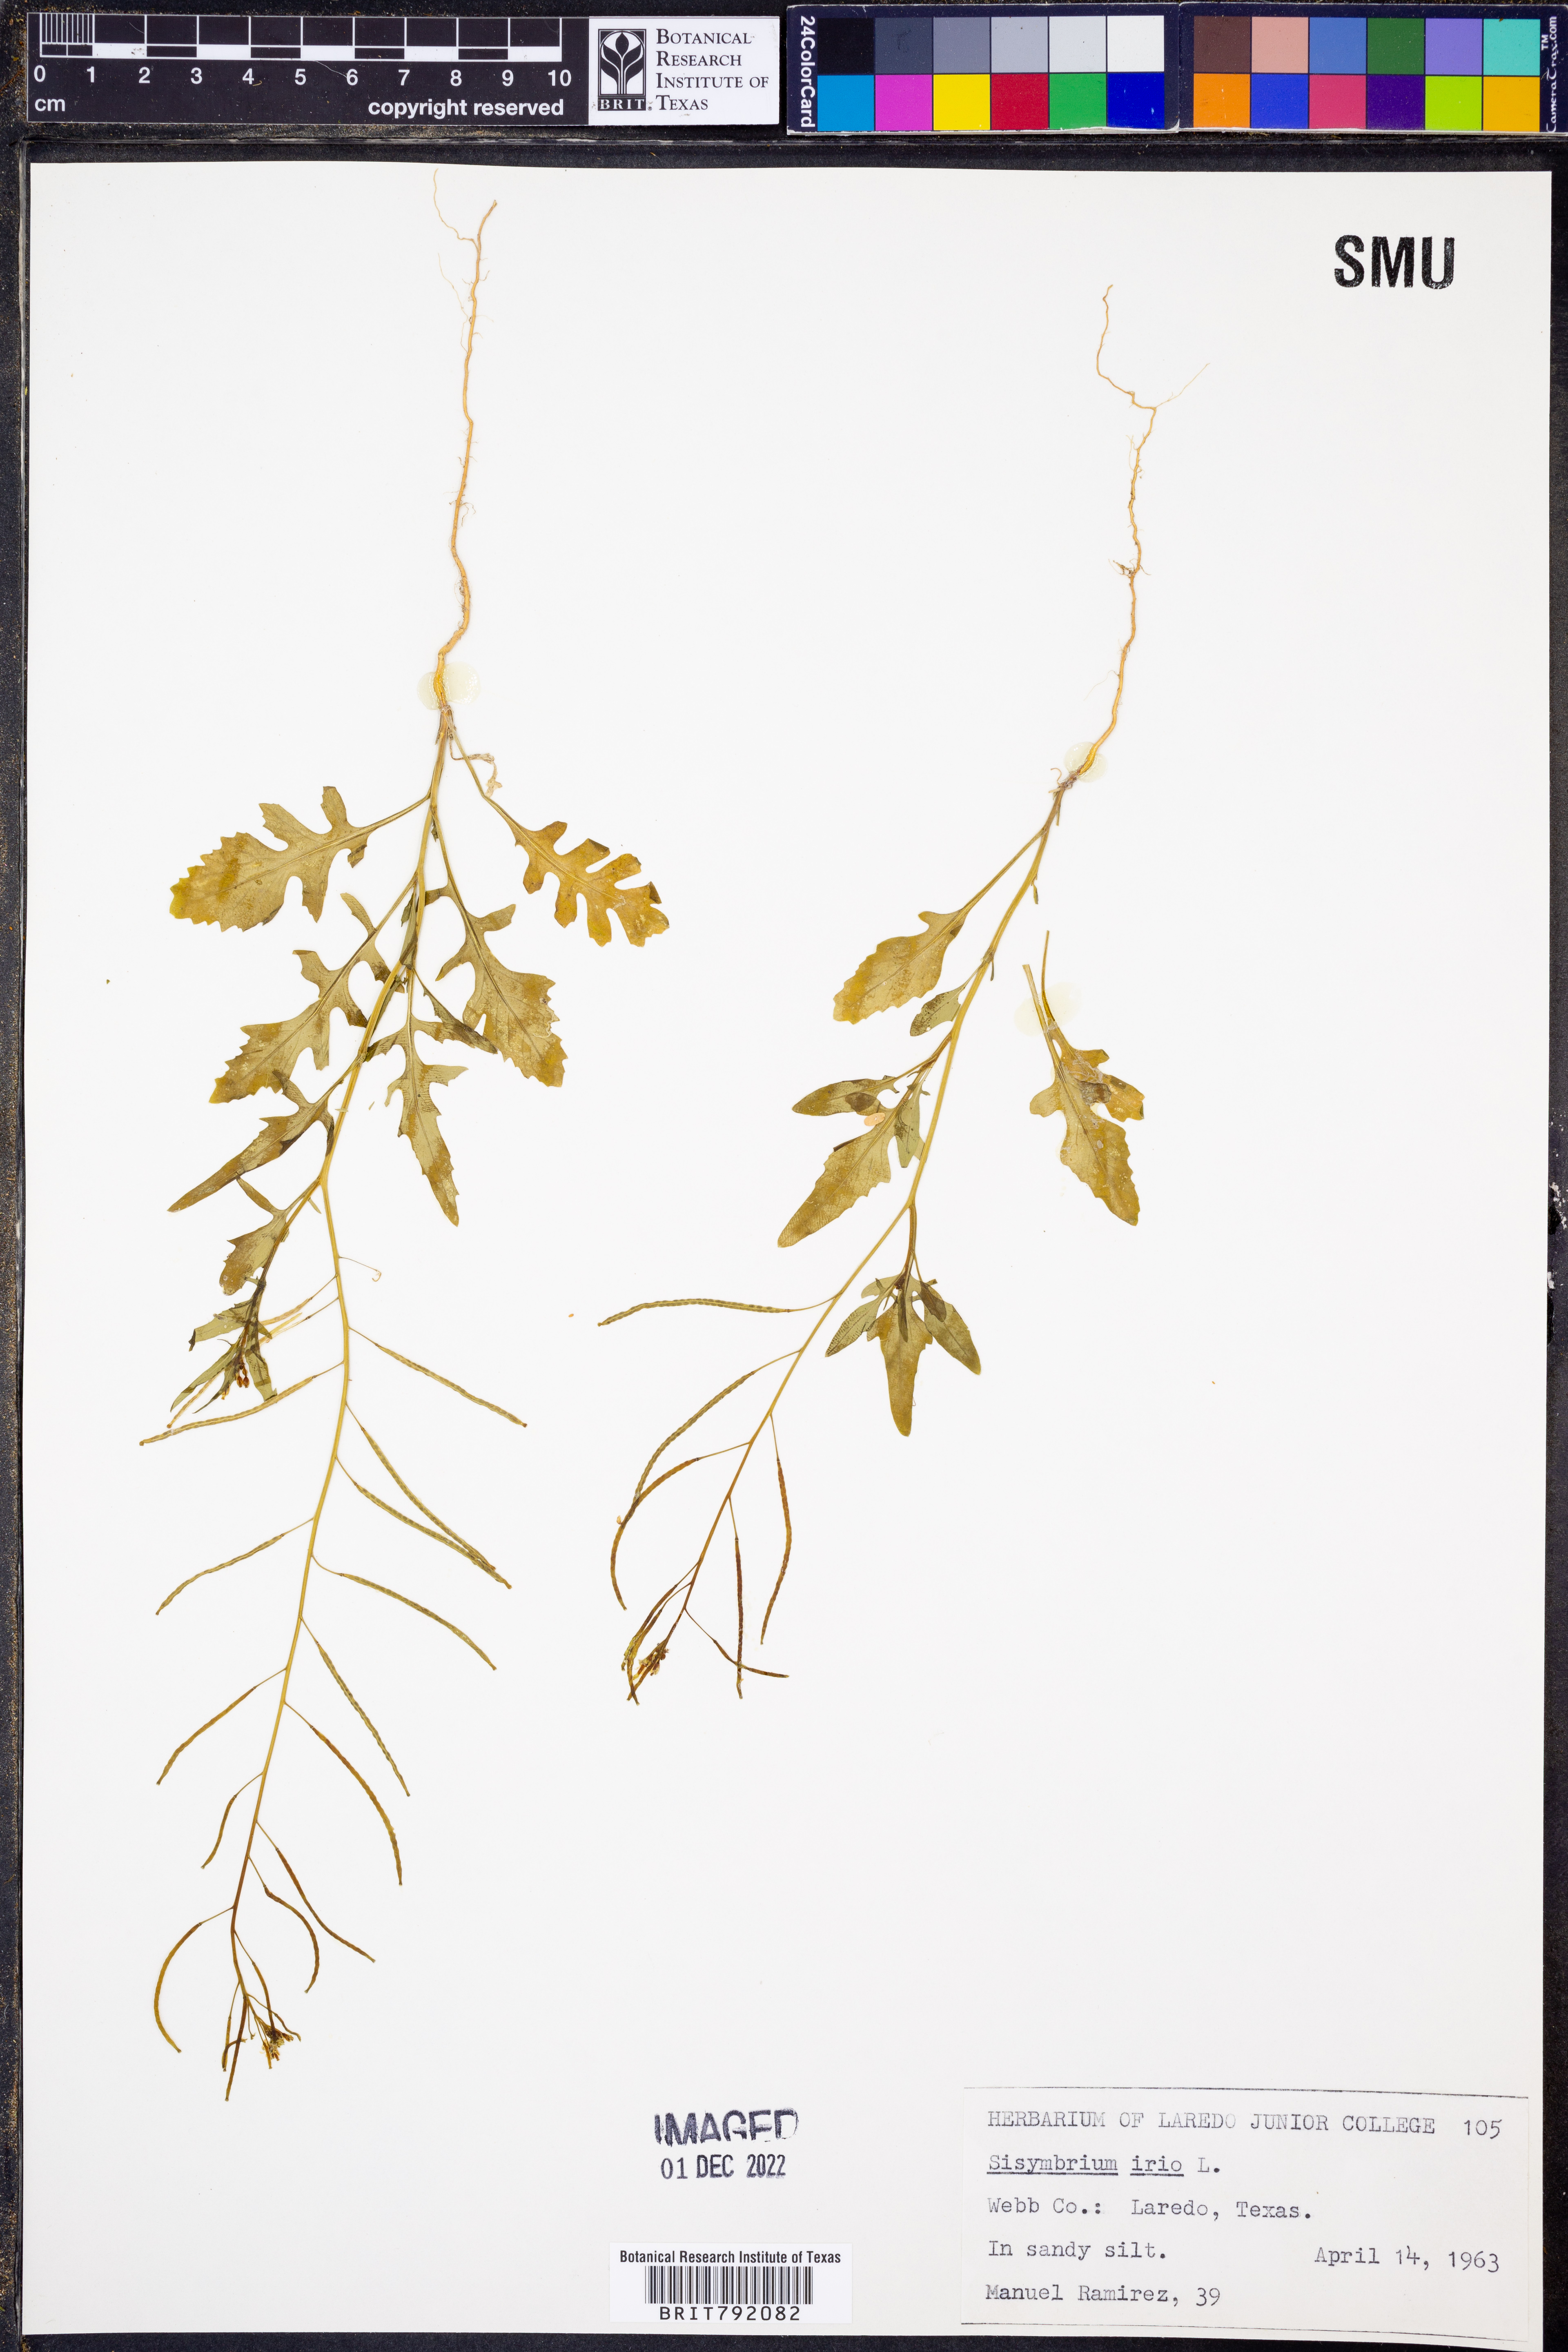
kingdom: Plantae
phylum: Tracheophyta
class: Magnoliopsida
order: Brassicales
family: Brassicaceae
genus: Sisymbrium
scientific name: Sisymbrium irio
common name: London rocket
